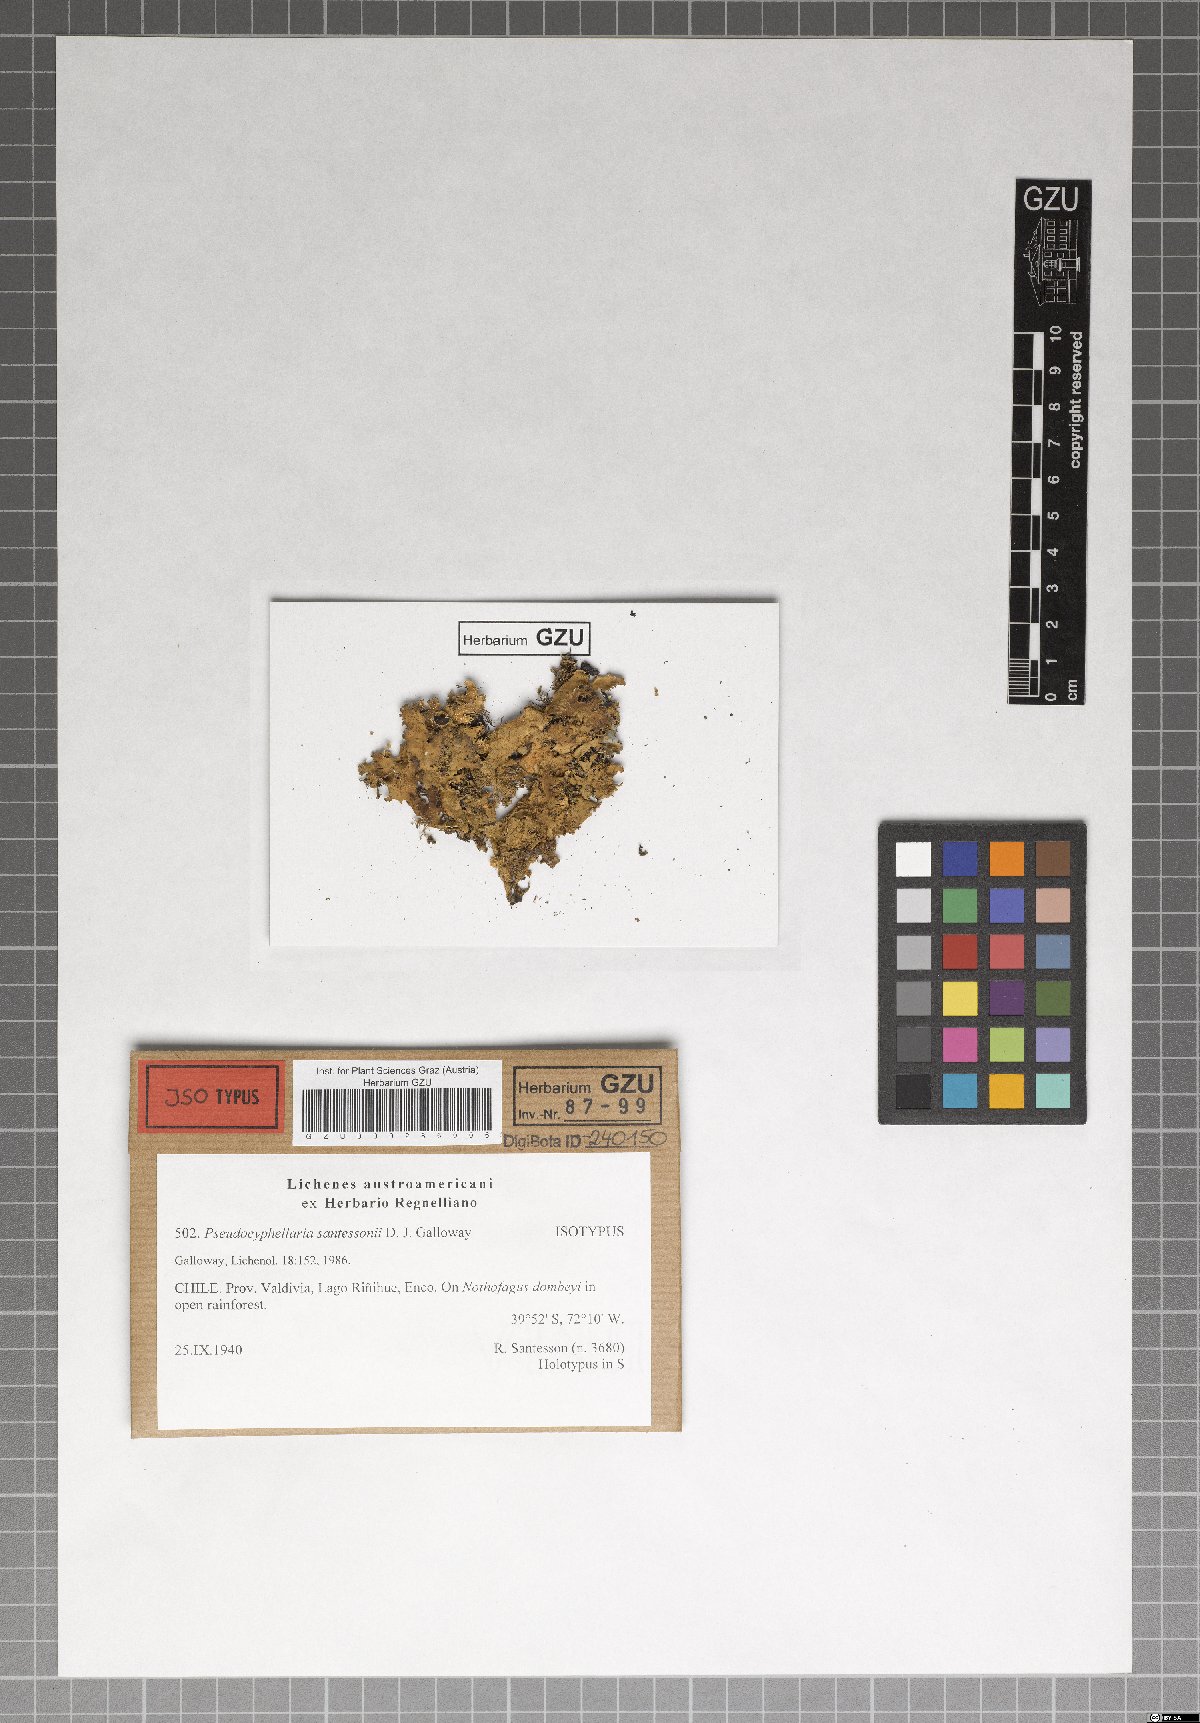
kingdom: Fungi
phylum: Ascomycota
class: Lecanoromycetes
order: Peltigerales
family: Lobariaceae
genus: Pseudocyphellaria
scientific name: Pseudocyphellaria santessonii
